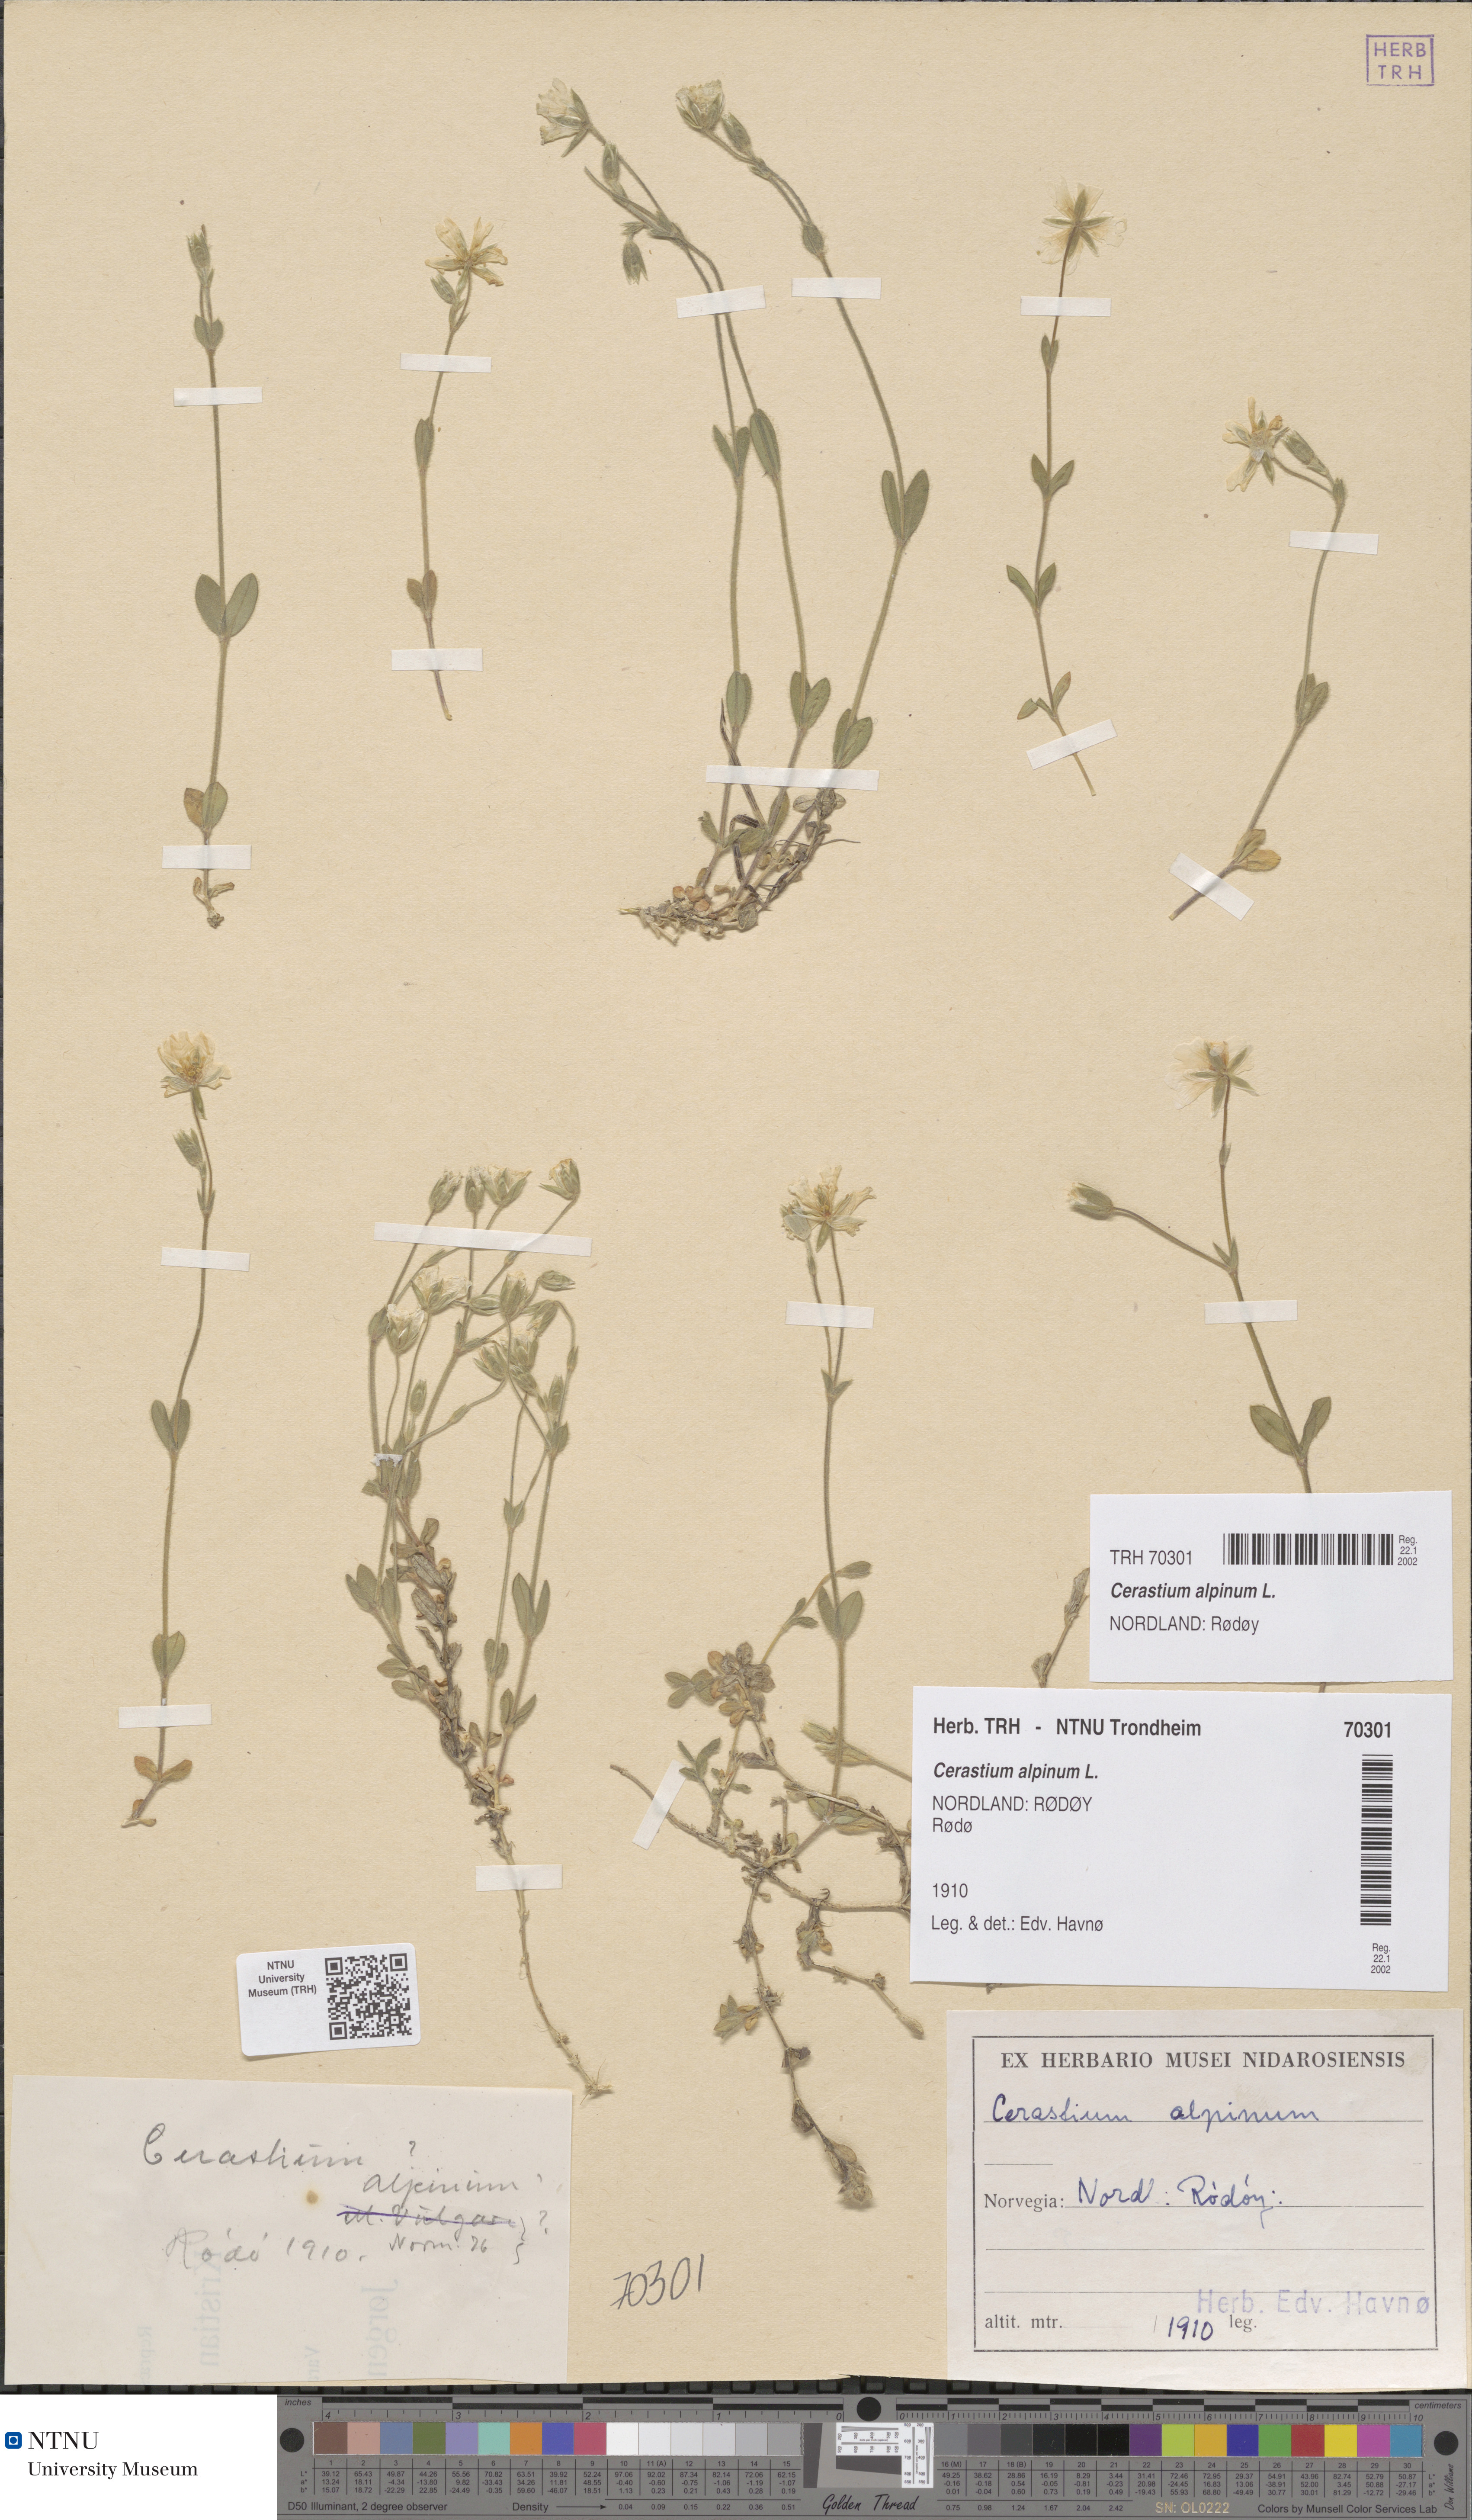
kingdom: Plantae
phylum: Tracheophyta
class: Magnoliopsida
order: Caryophyllales
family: Caryophyllaceae
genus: Cerastium
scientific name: Cerastium alpinum
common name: Alpine mouse-ear
